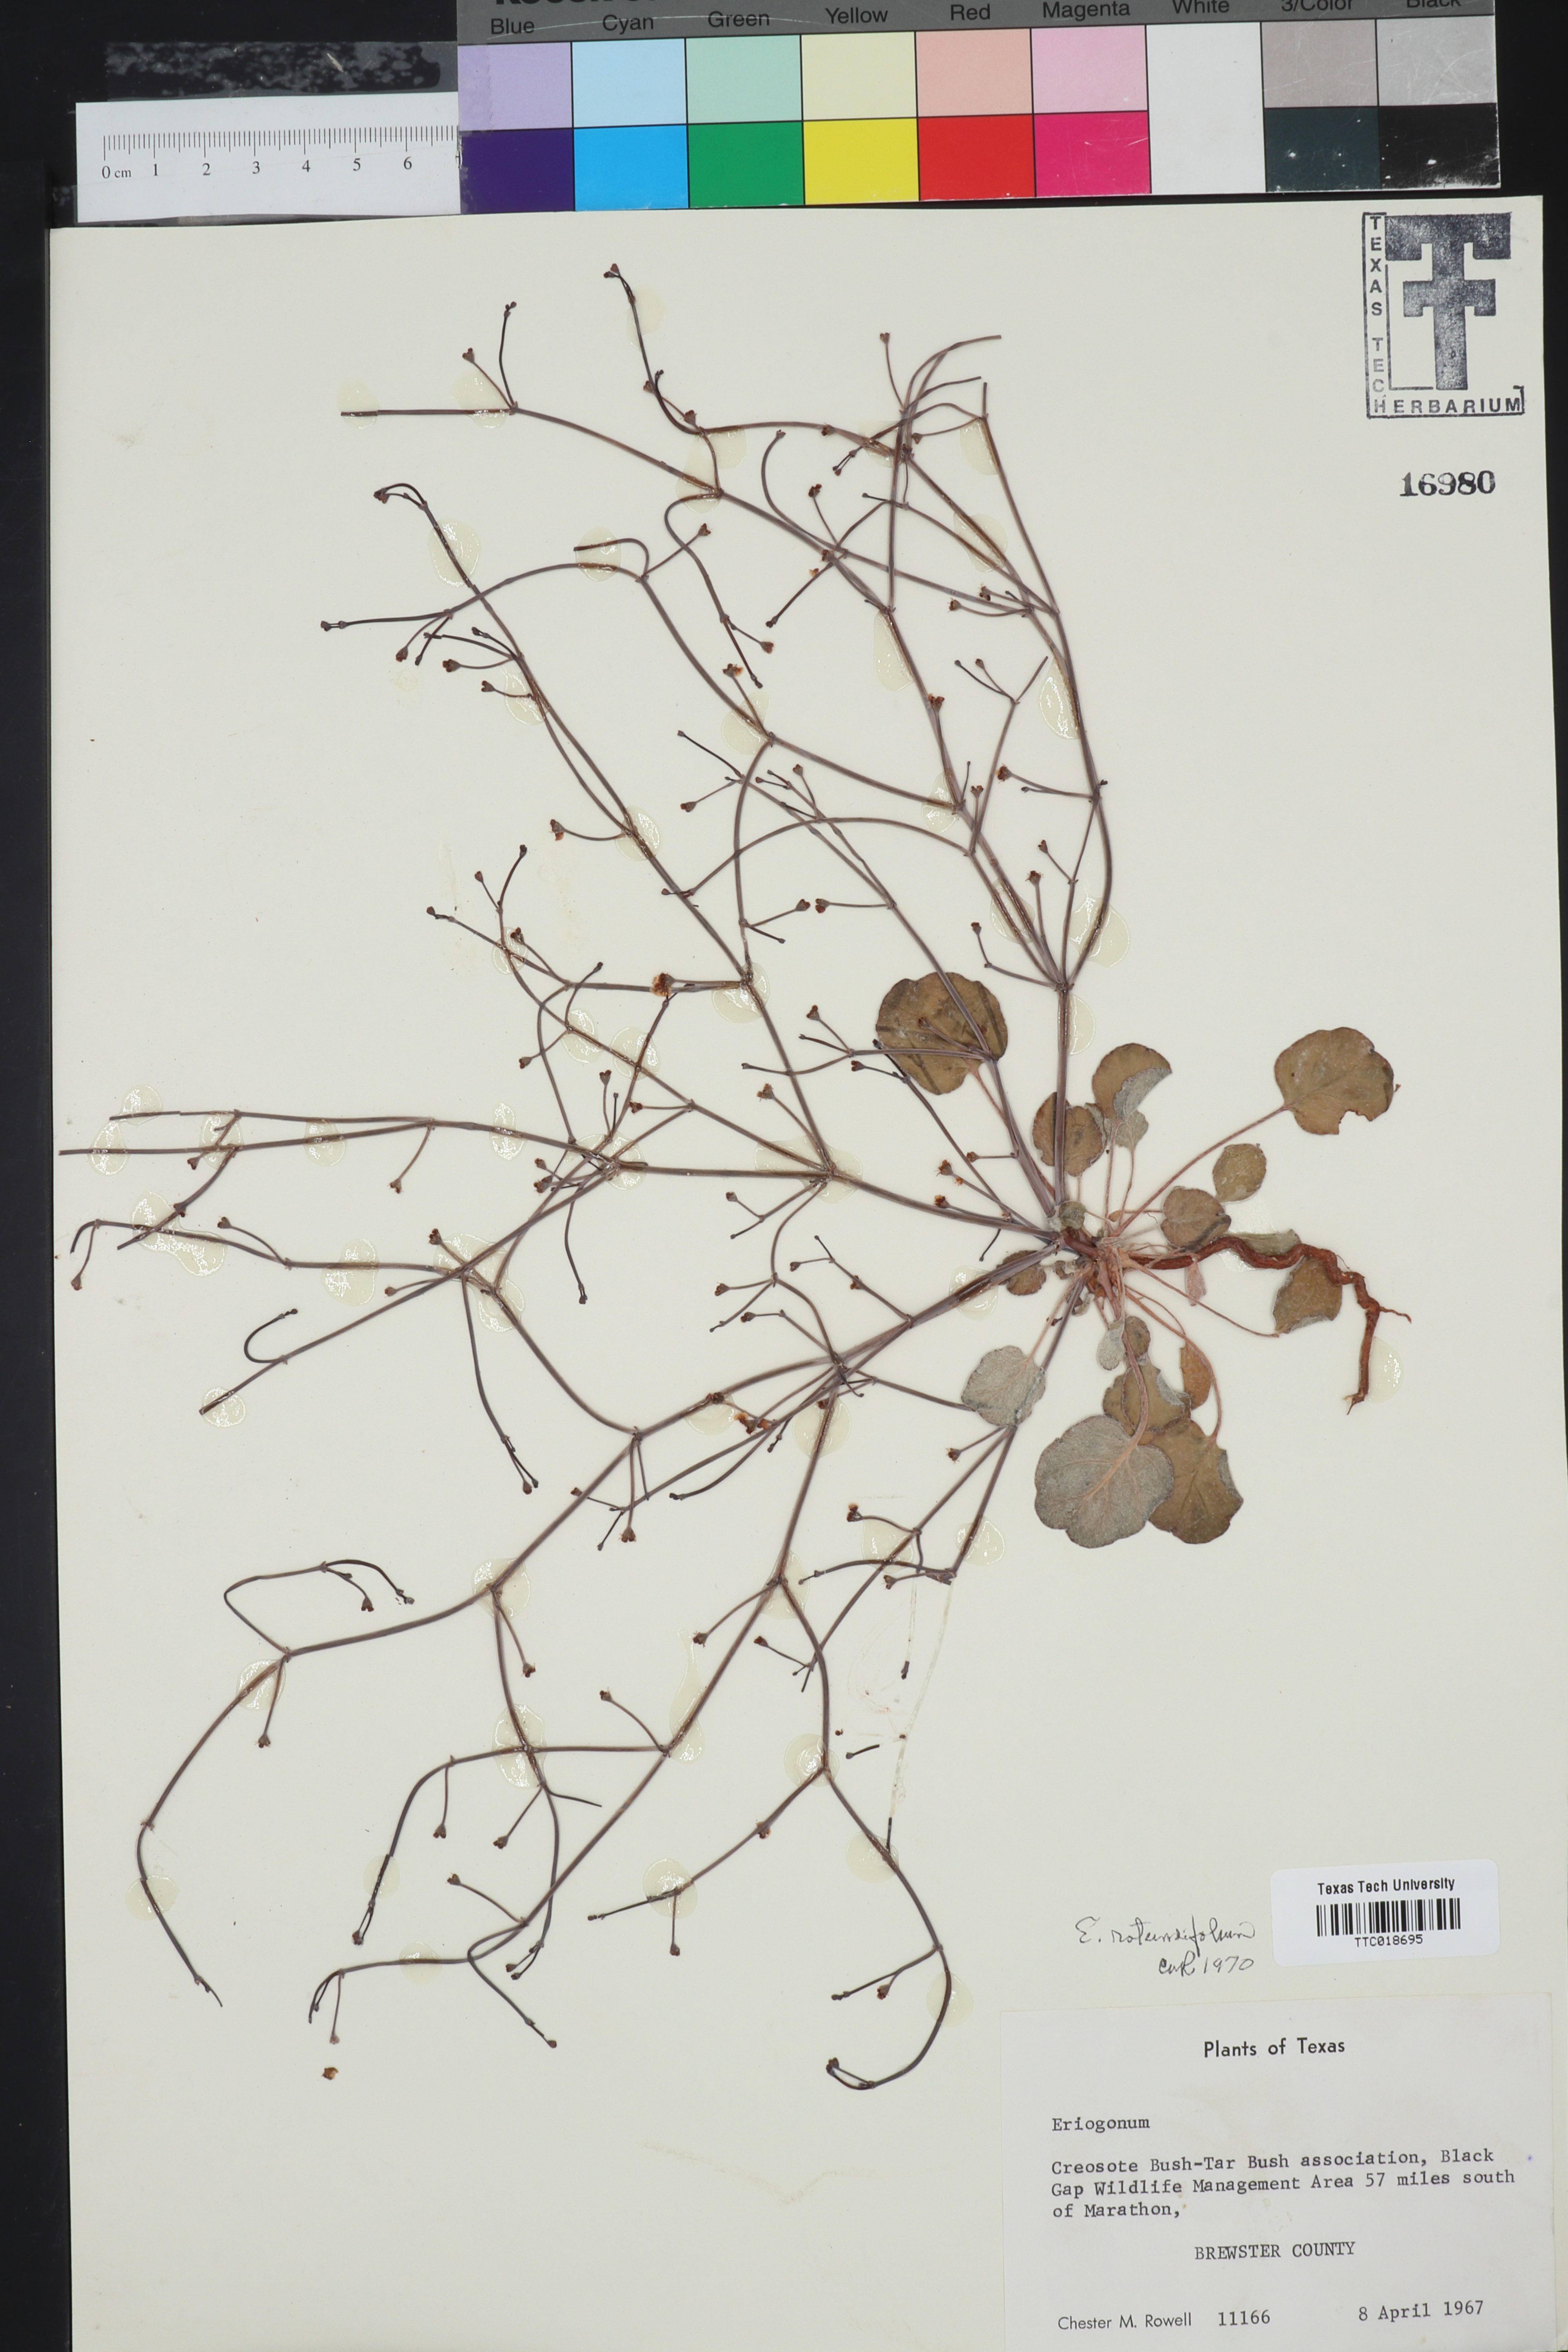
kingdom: Plantae
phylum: Tracheophyta
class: Magnoliopsida
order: Caryophyllales
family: Polygonaceae
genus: Eriogonum
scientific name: Eriogonum rotundifolium
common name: Round-leaf wild buckwheat
